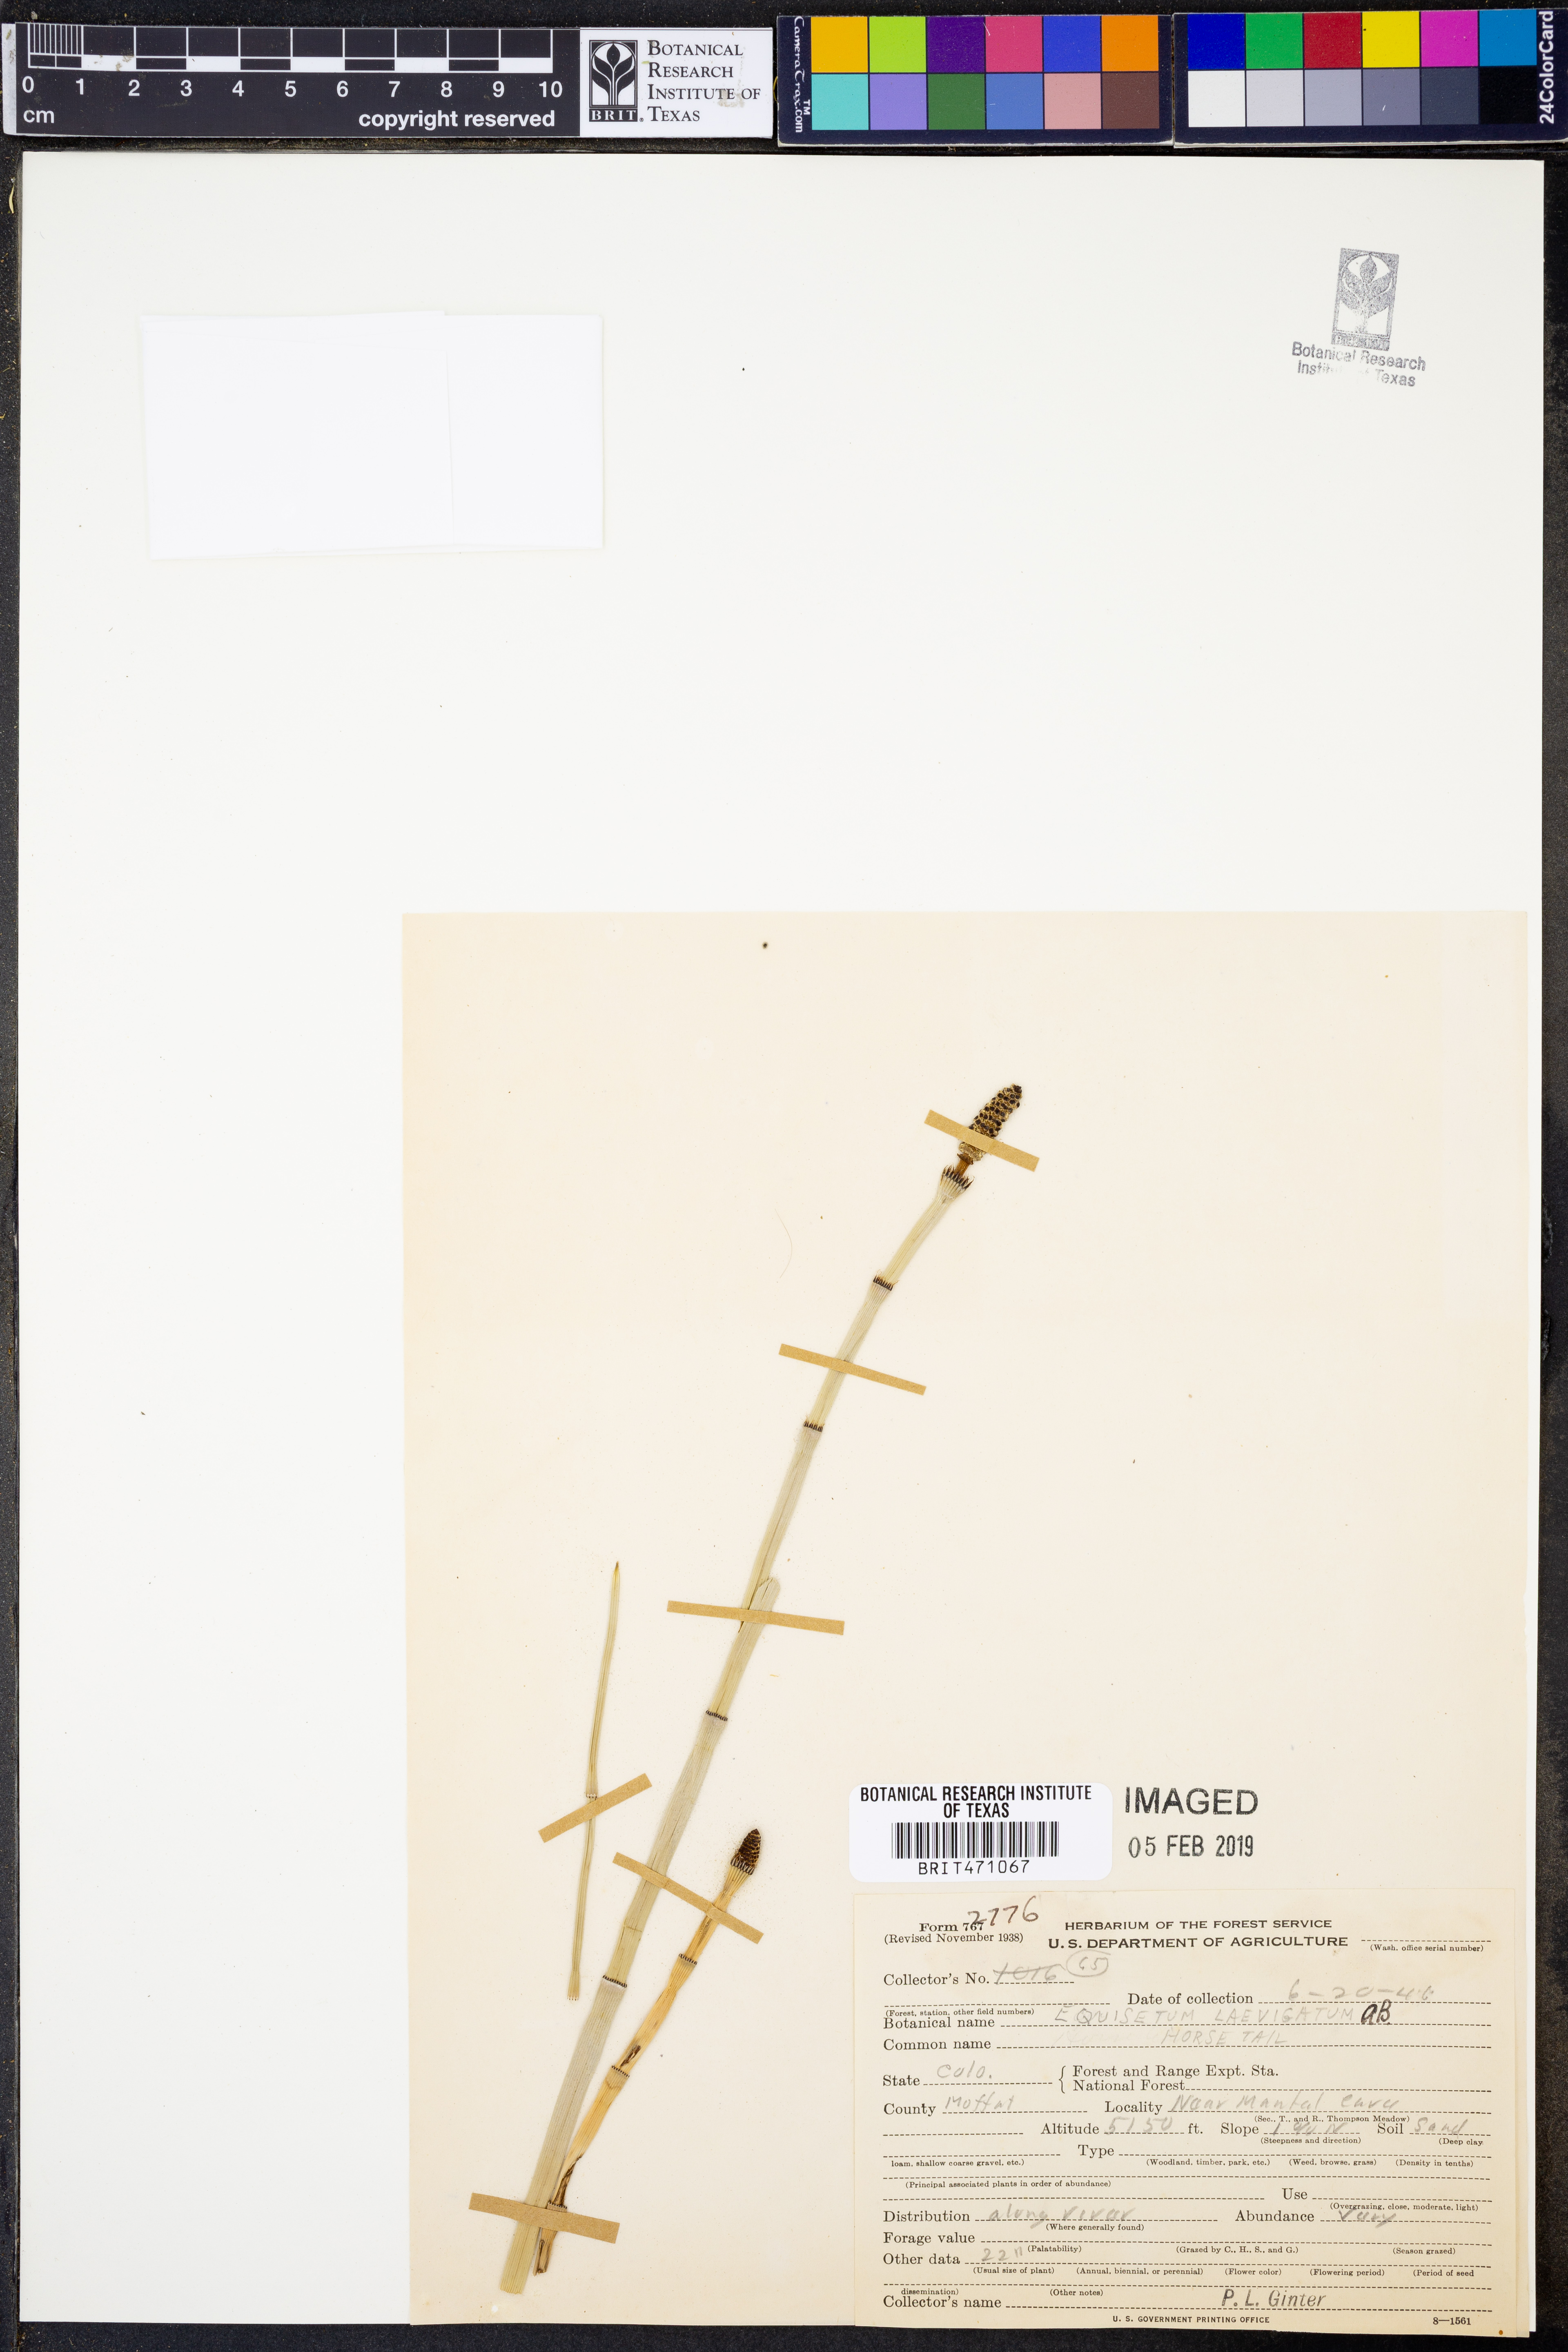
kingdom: Plantae
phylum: Tracheophyta
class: Polypodiopsida
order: Equisetales
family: Equisetaceae
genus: Equisetum
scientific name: Equisetum laevigatum
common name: Smooth scouring-rush
